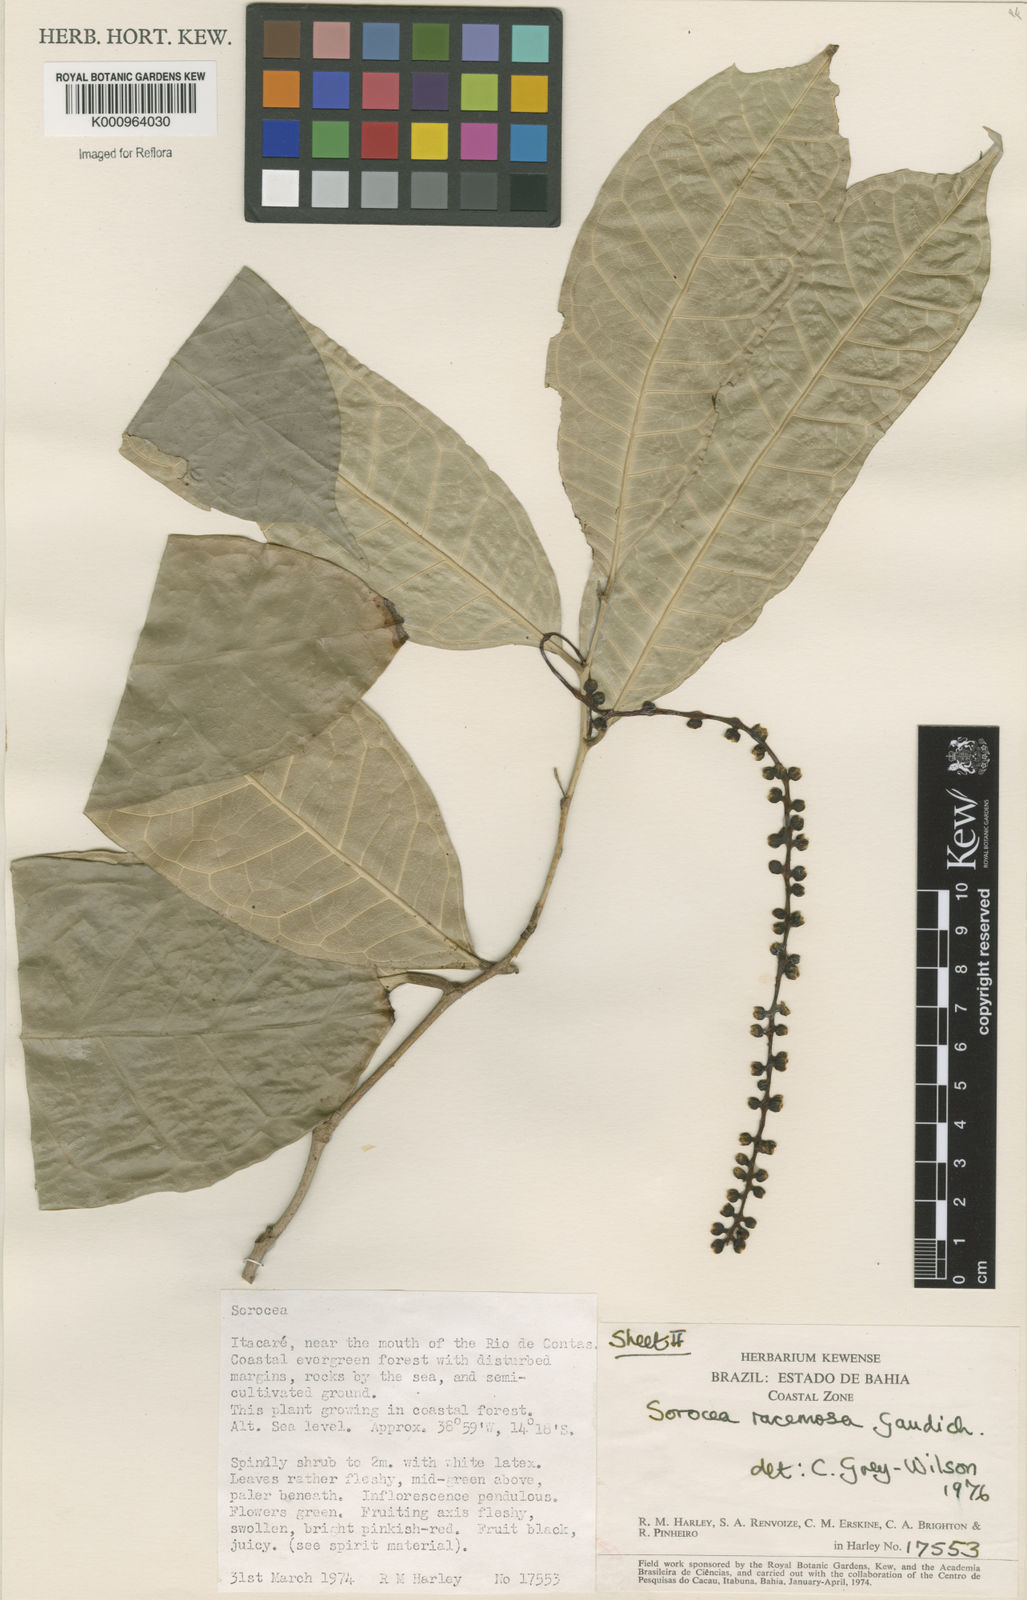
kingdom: Plantae
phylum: Tracheophyta
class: Magnoliopsida
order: Rosales
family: Moraceae
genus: Sorocea
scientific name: Sorocea hilarii
